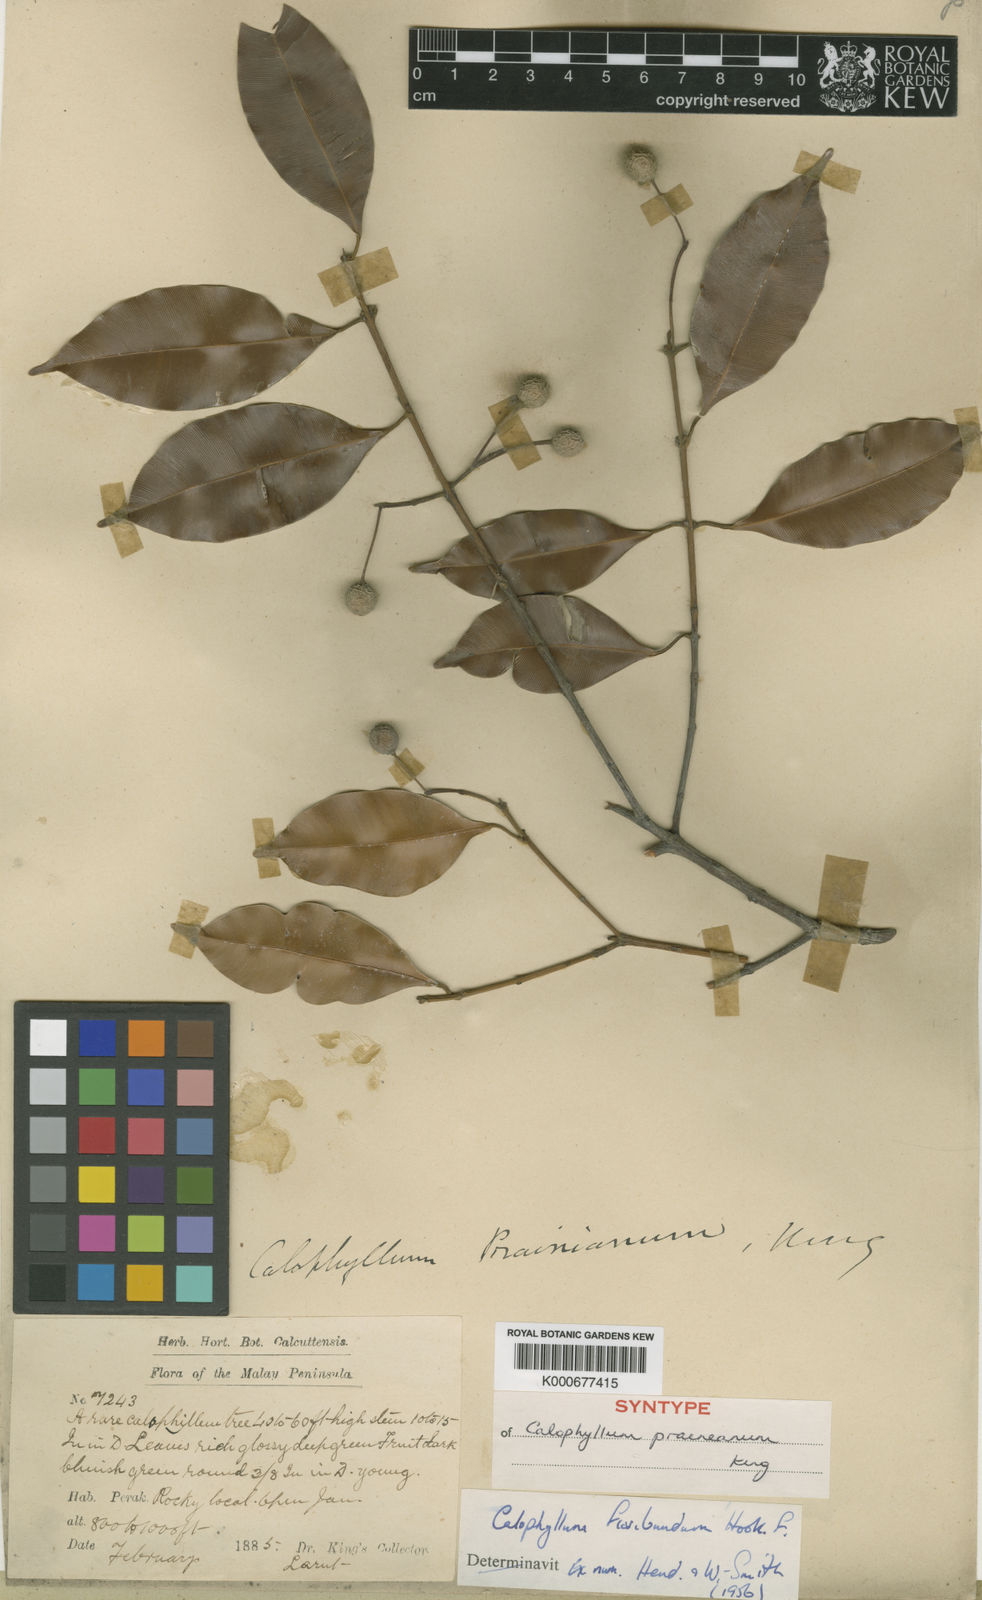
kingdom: Plantae
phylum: Tracheophyta
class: Magnoliopsida
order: Malpighiales
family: Calophyllaceae
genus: Calophyllum
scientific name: Calophyllum tetrapterum
